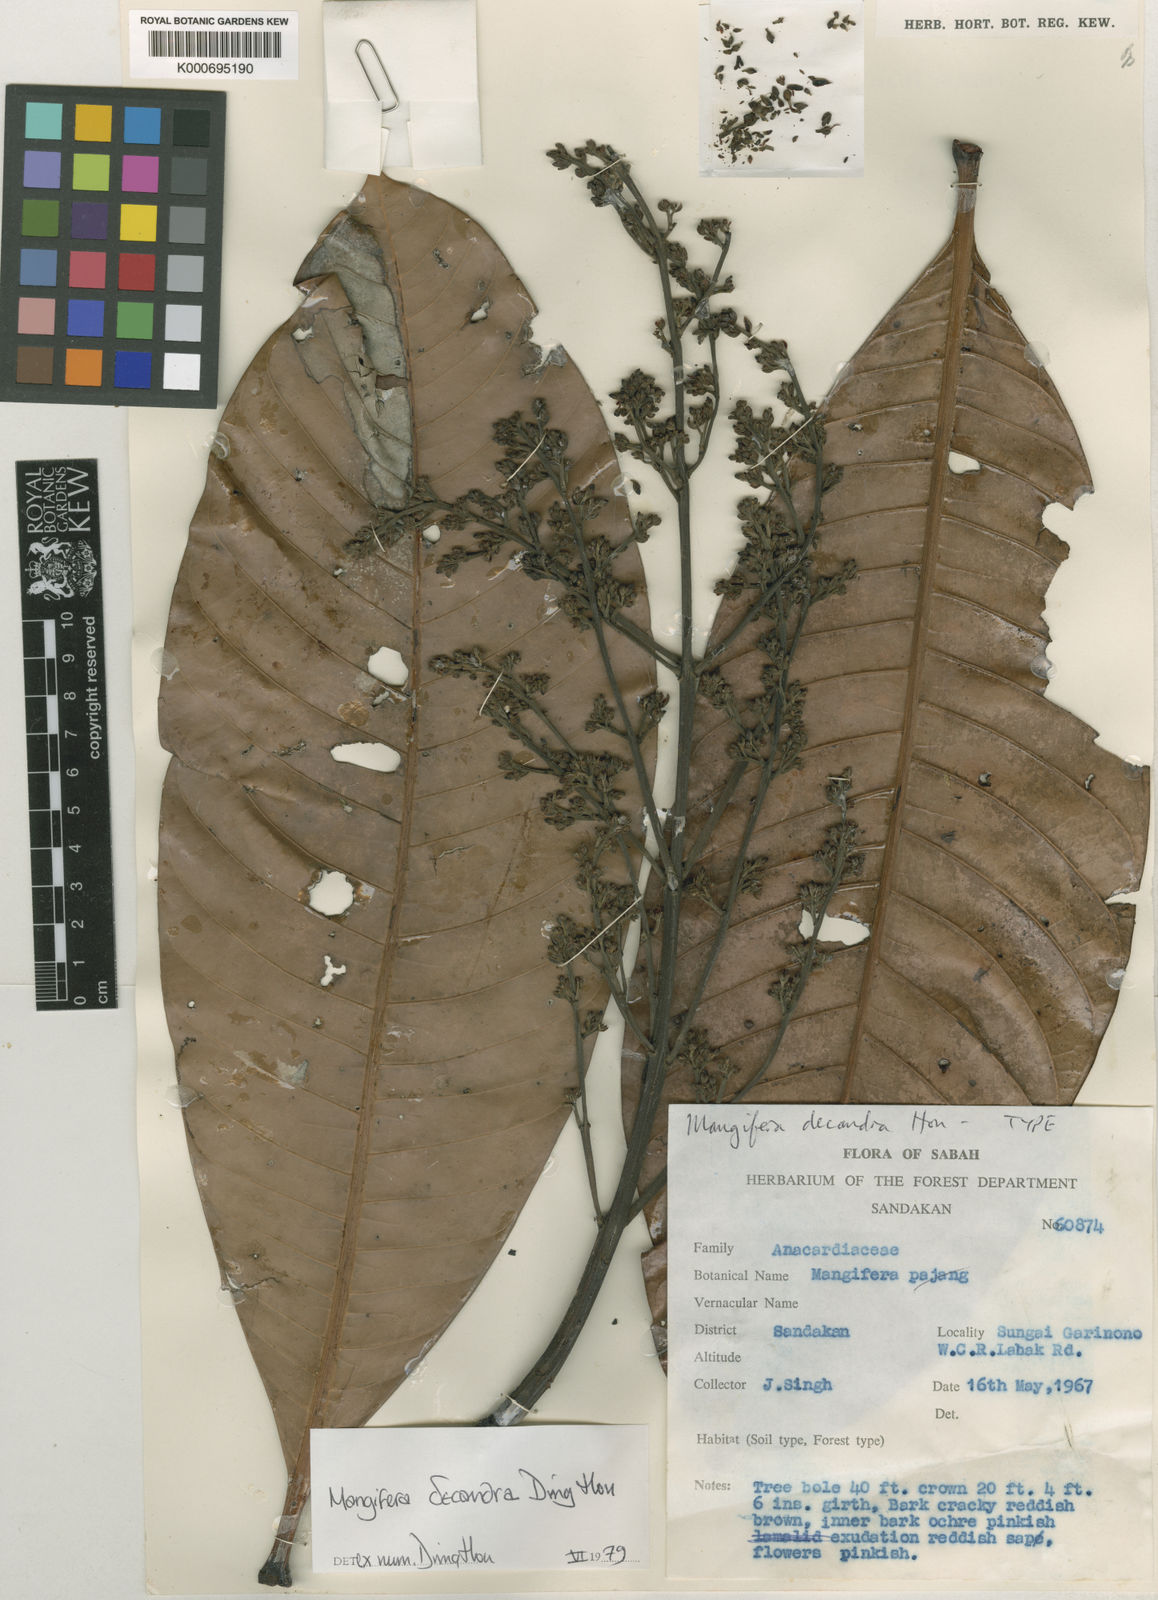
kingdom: Plantae
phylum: Tracheophyta
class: Magnoliopsida
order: Sapindales
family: Anacardiaceae
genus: Mangifera
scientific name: Mangifera decandra
